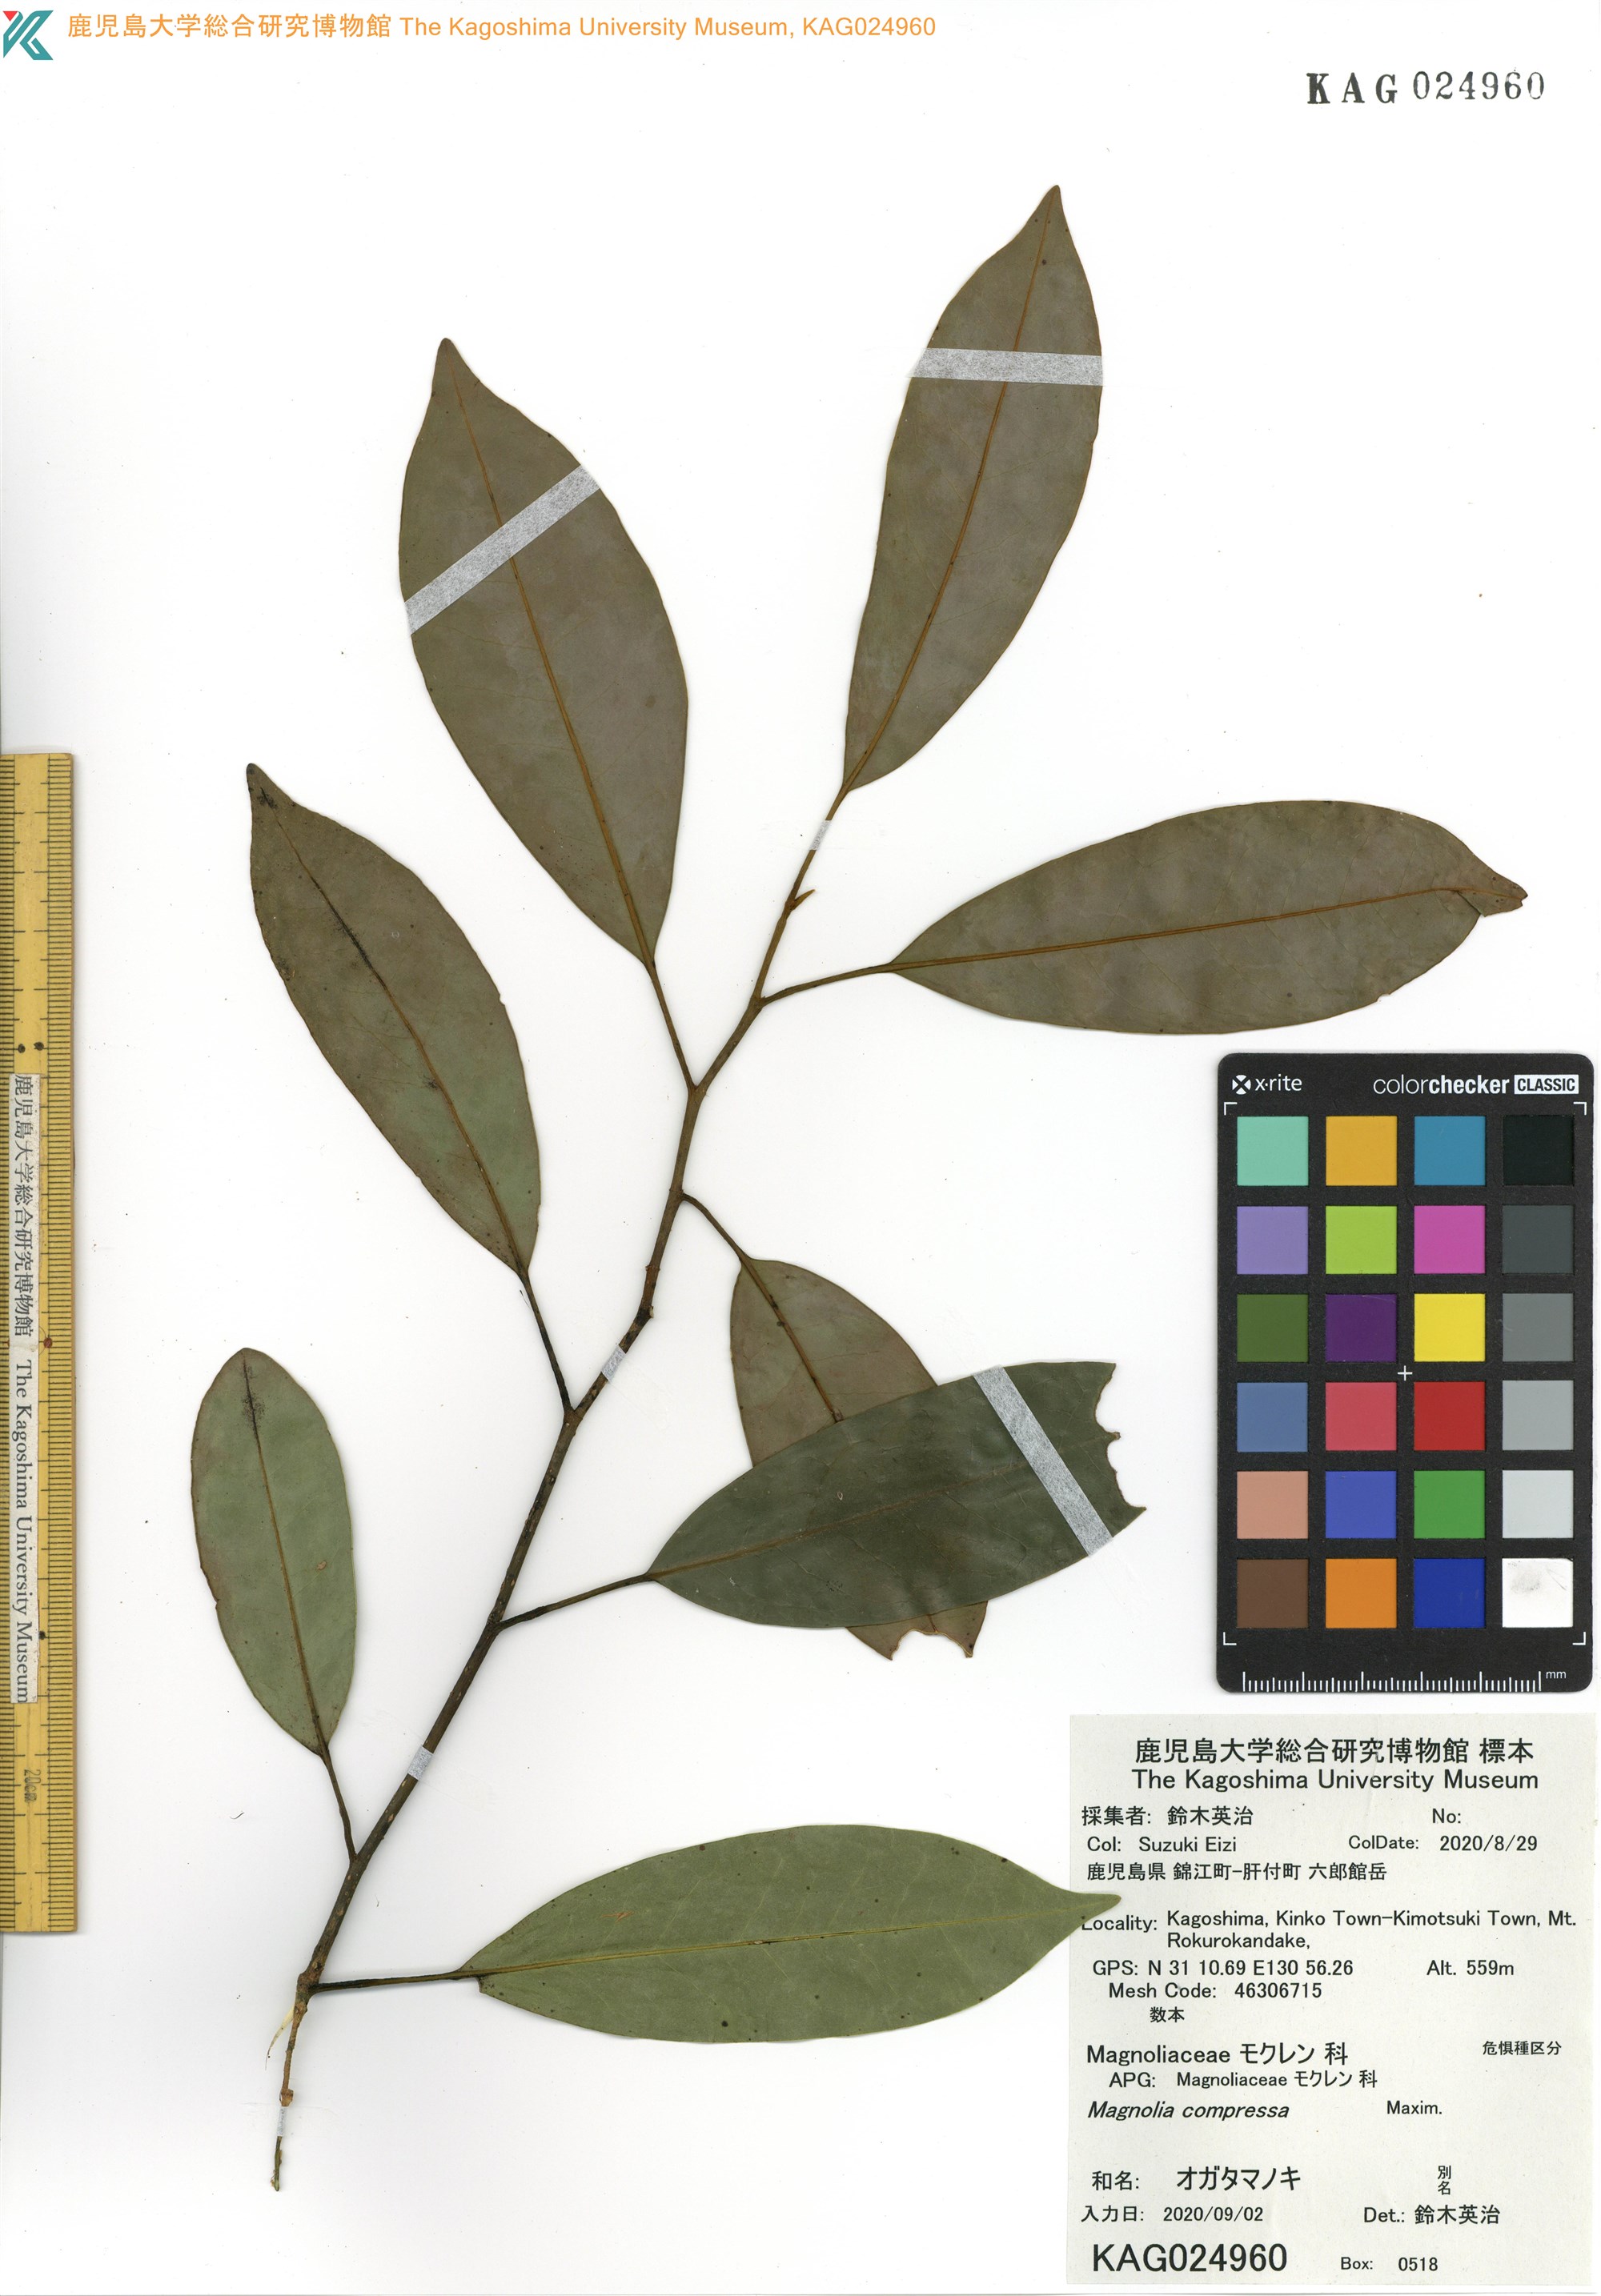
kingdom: Plantae
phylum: Tracheophyta
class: Magnoliopsida
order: Magnoliales
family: Magnoliaceae
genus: Magnolia
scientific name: Magnolia compressa
